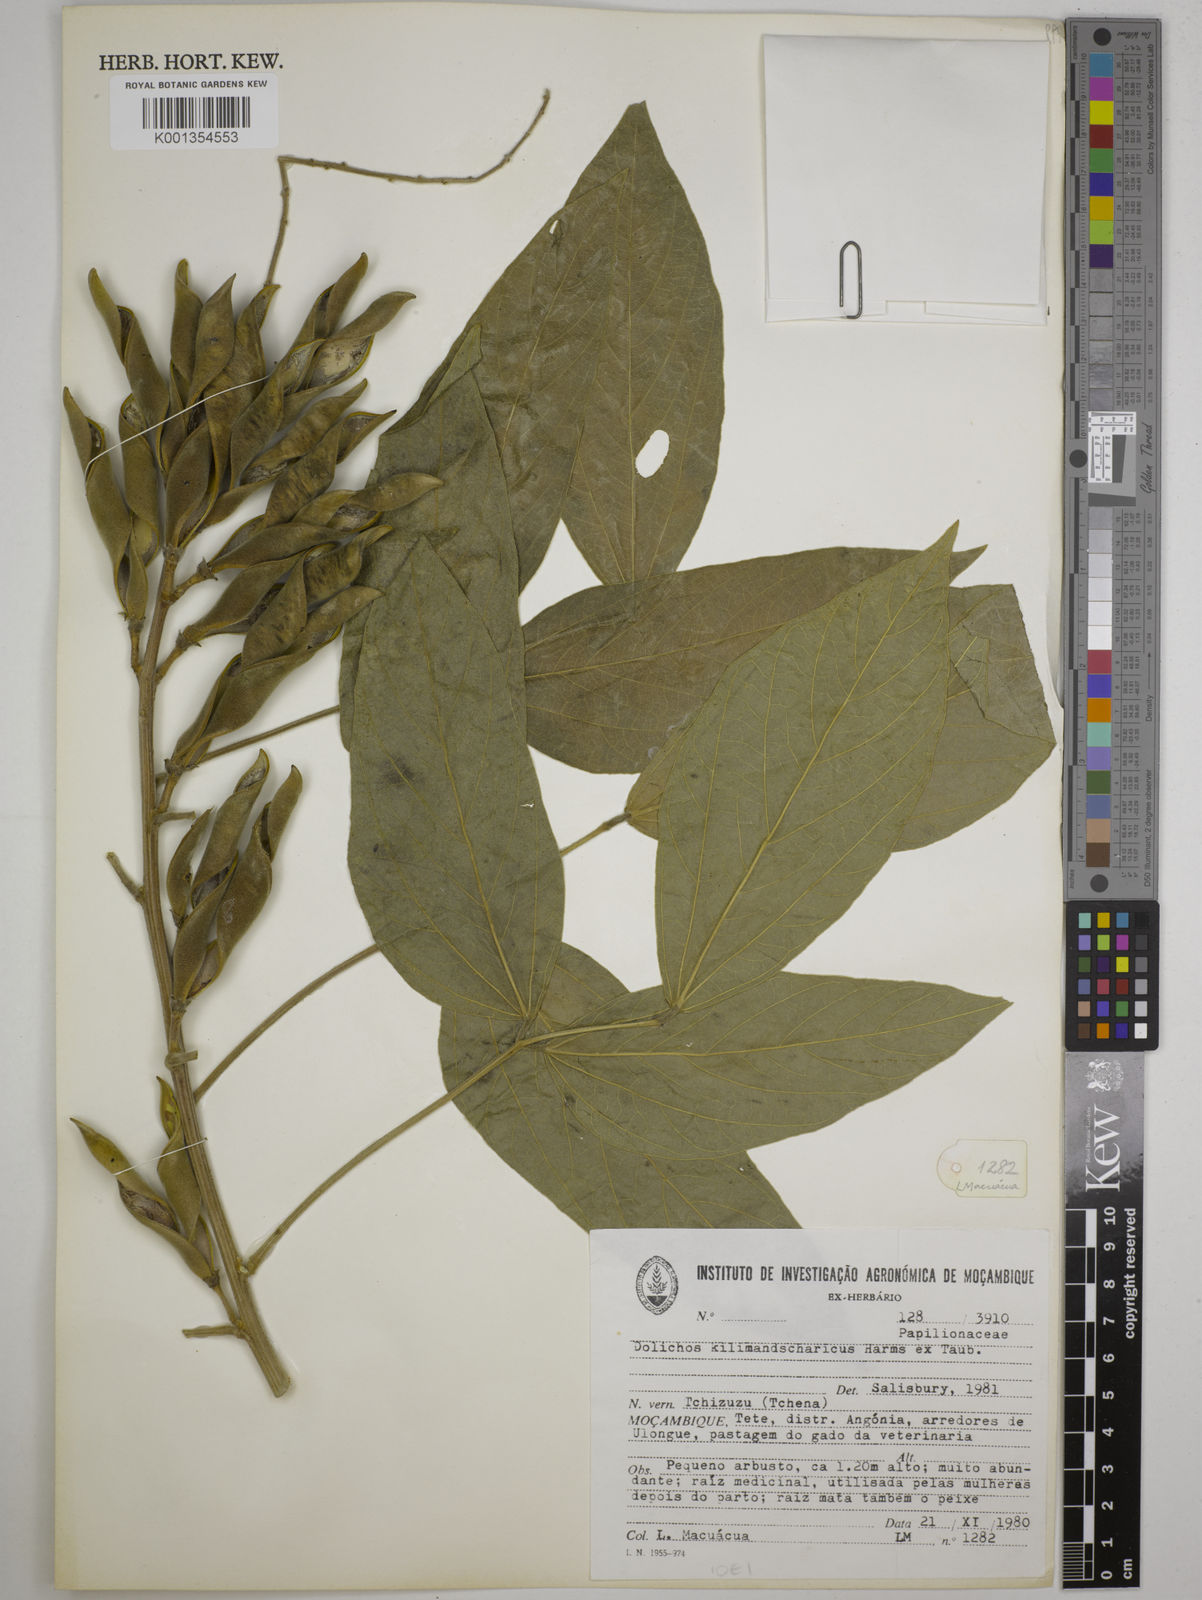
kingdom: Plantae
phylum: Tracheophyta
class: Magnoliopsida
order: Fabales
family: Fabaceae
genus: Dolichos
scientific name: Dolichos kilimandscharicus
